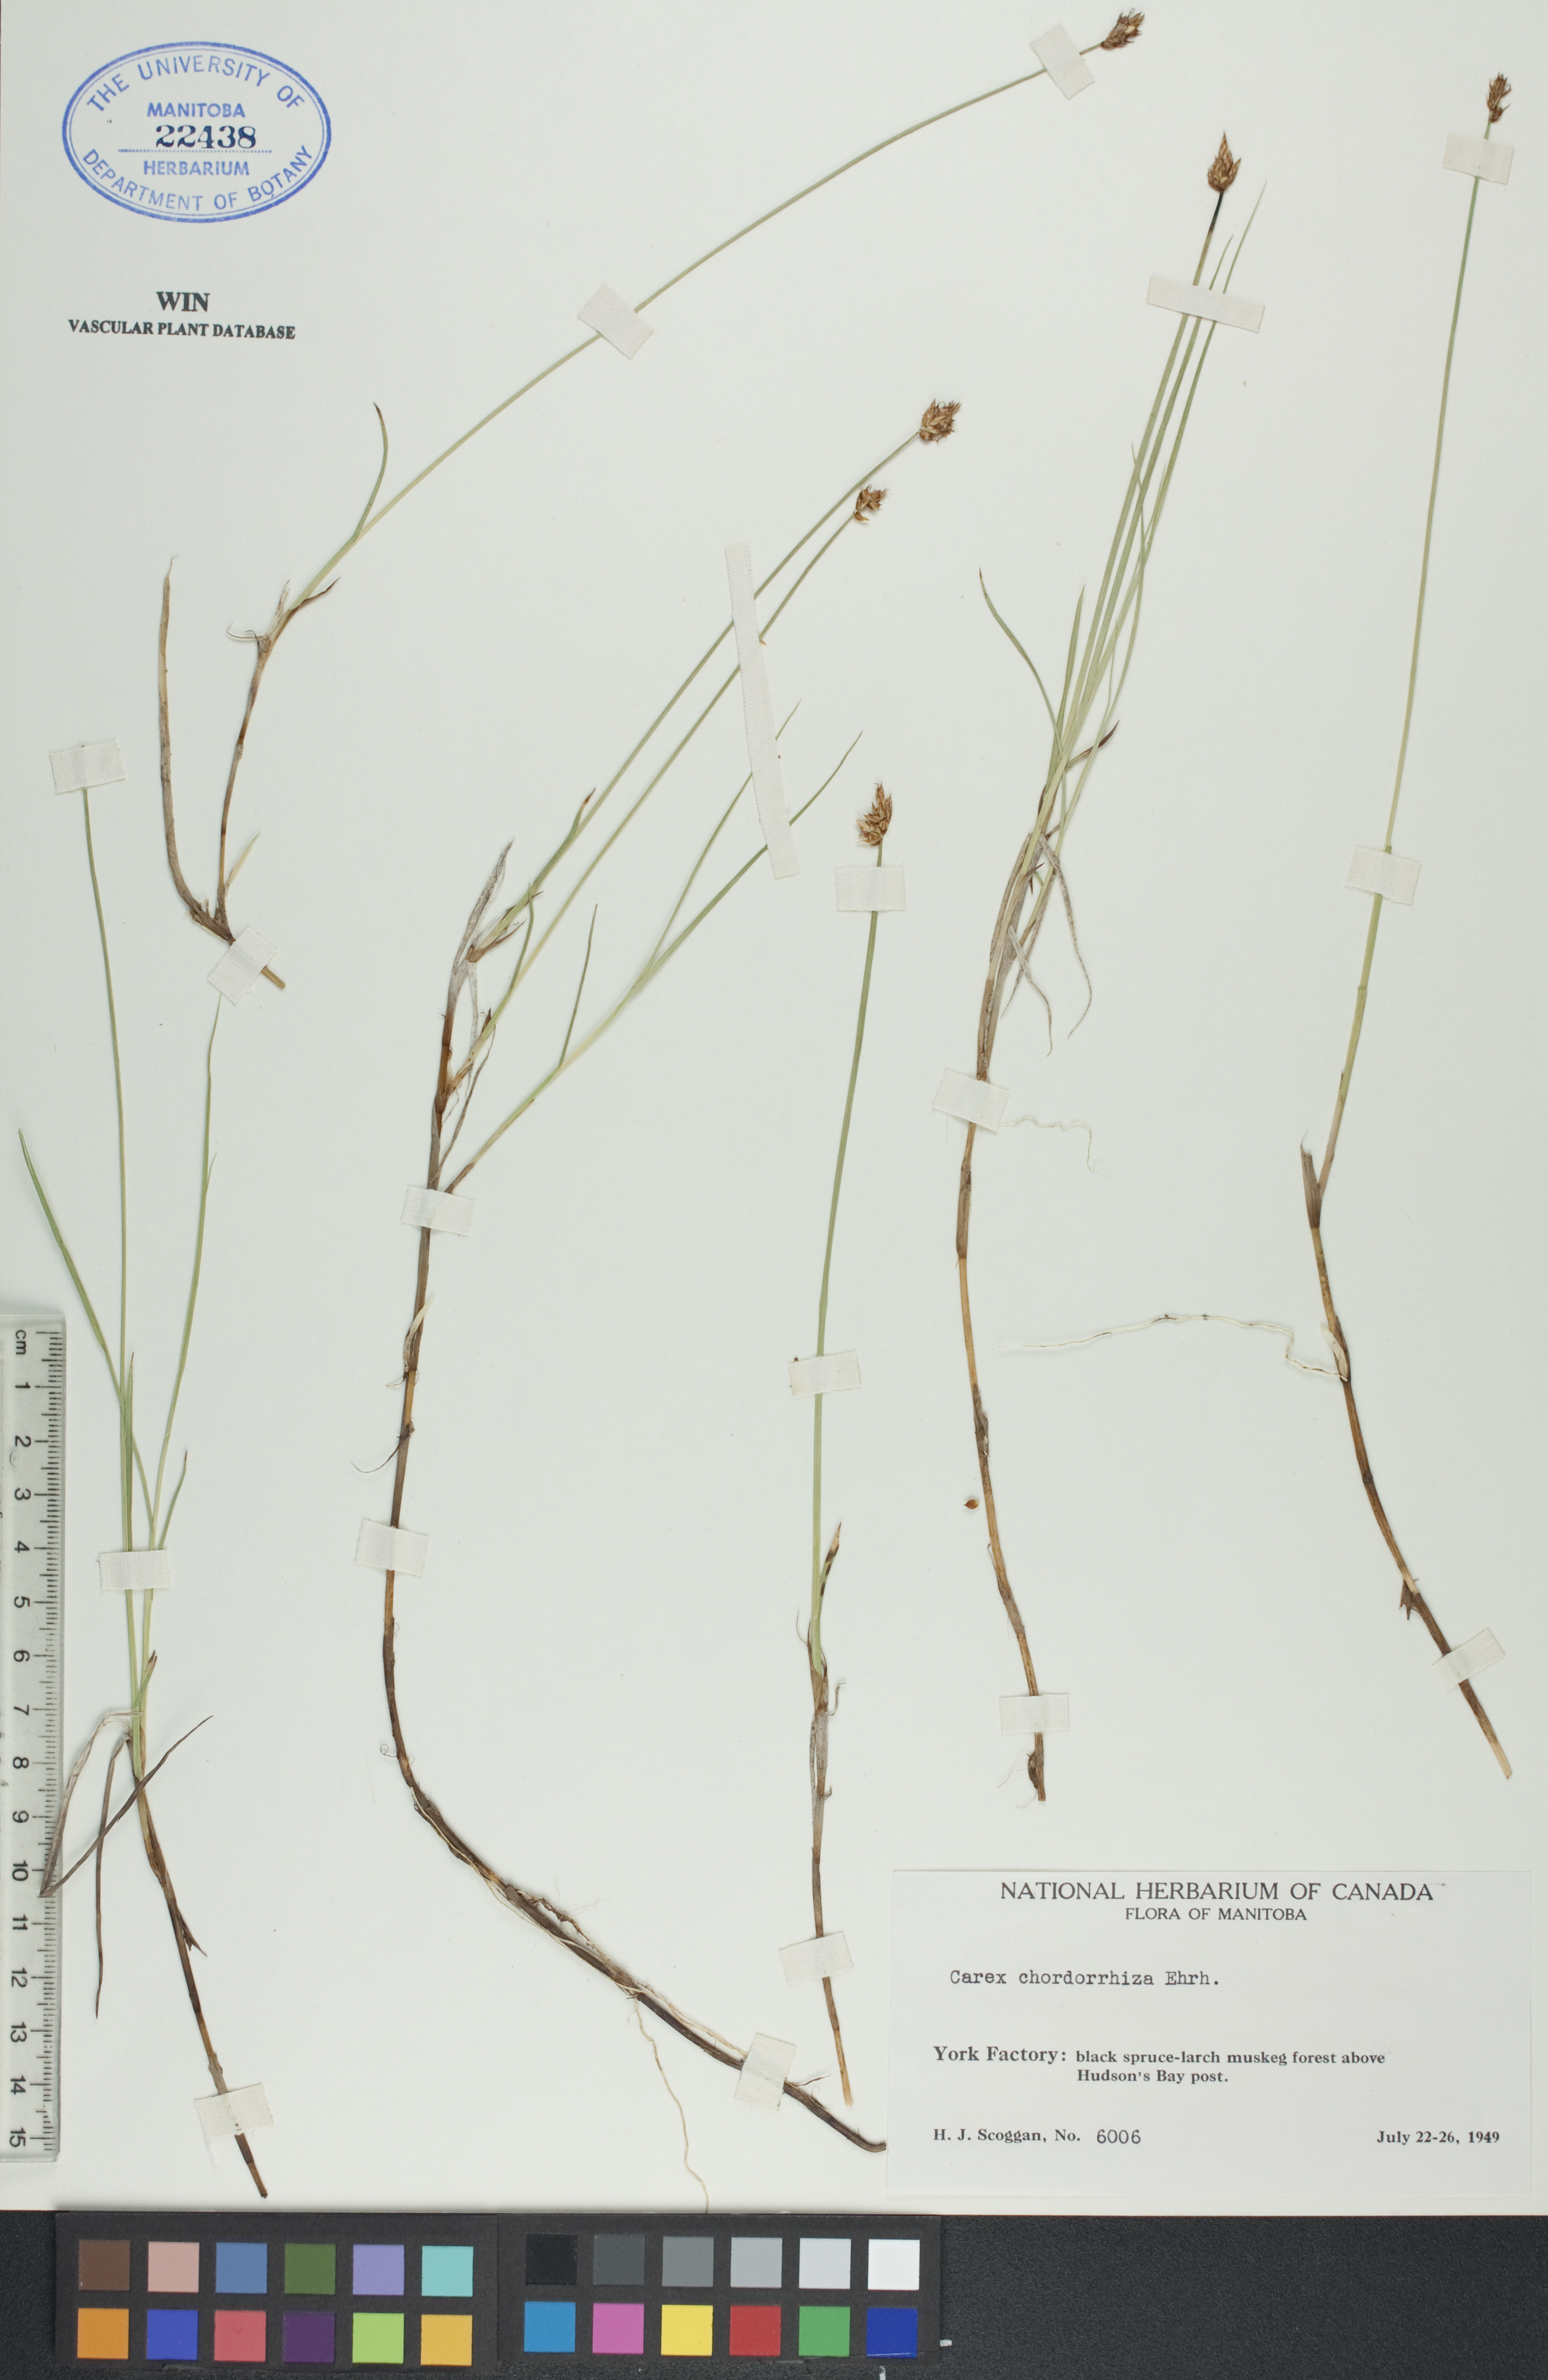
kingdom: Plantae
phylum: Tracheophyta
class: Liliopsida
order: Poales
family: Cyperaceae
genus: Carex
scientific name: Carex chordorrhiza
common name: String sedge
